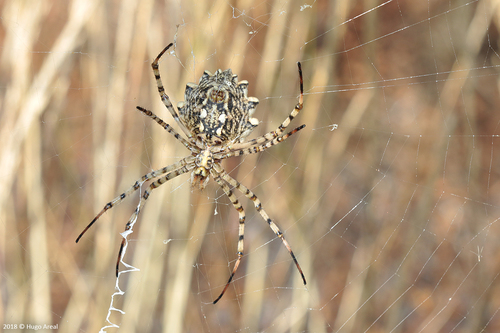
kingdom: Animalia
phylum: Arthropoda
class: Arachnida
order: Araneae
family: Araneidae
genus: Argiope
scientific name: Argiope lobata
